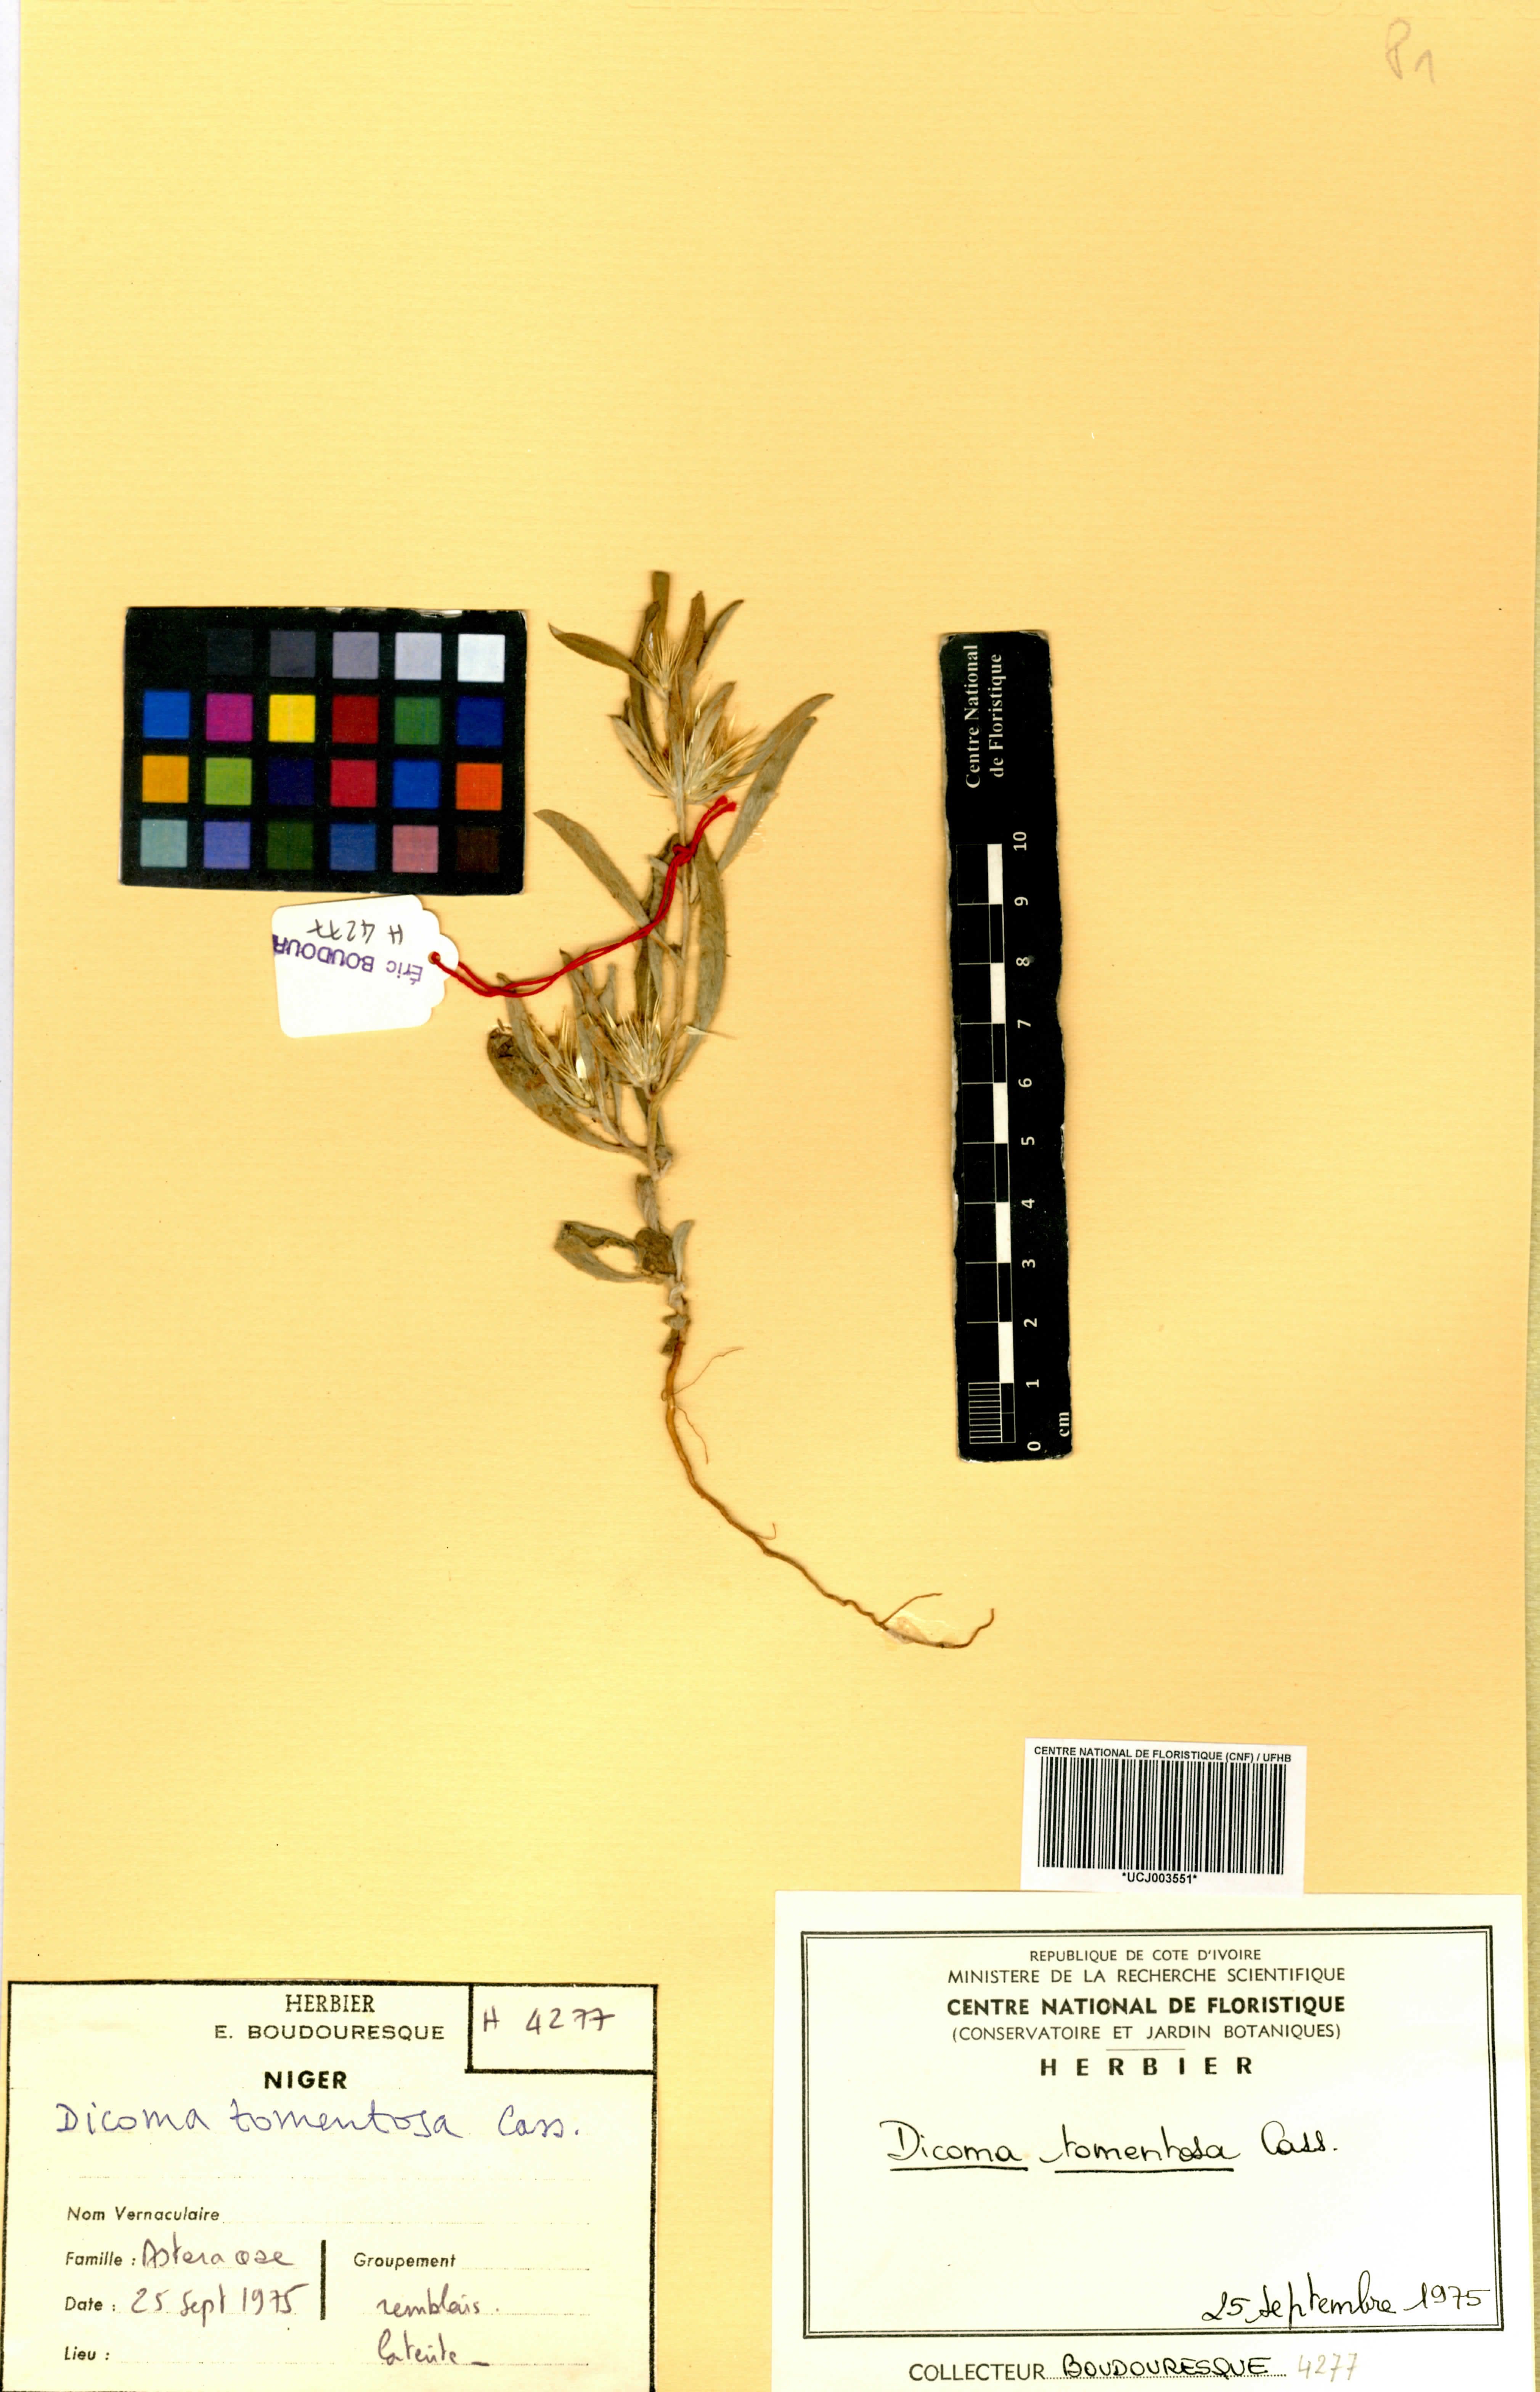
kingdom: Plantae
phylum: Tracheophyta
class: Magnoliopsida
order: Asterales
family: Asteraceae
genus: Dicoma
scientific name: Dicoma tomentosa
